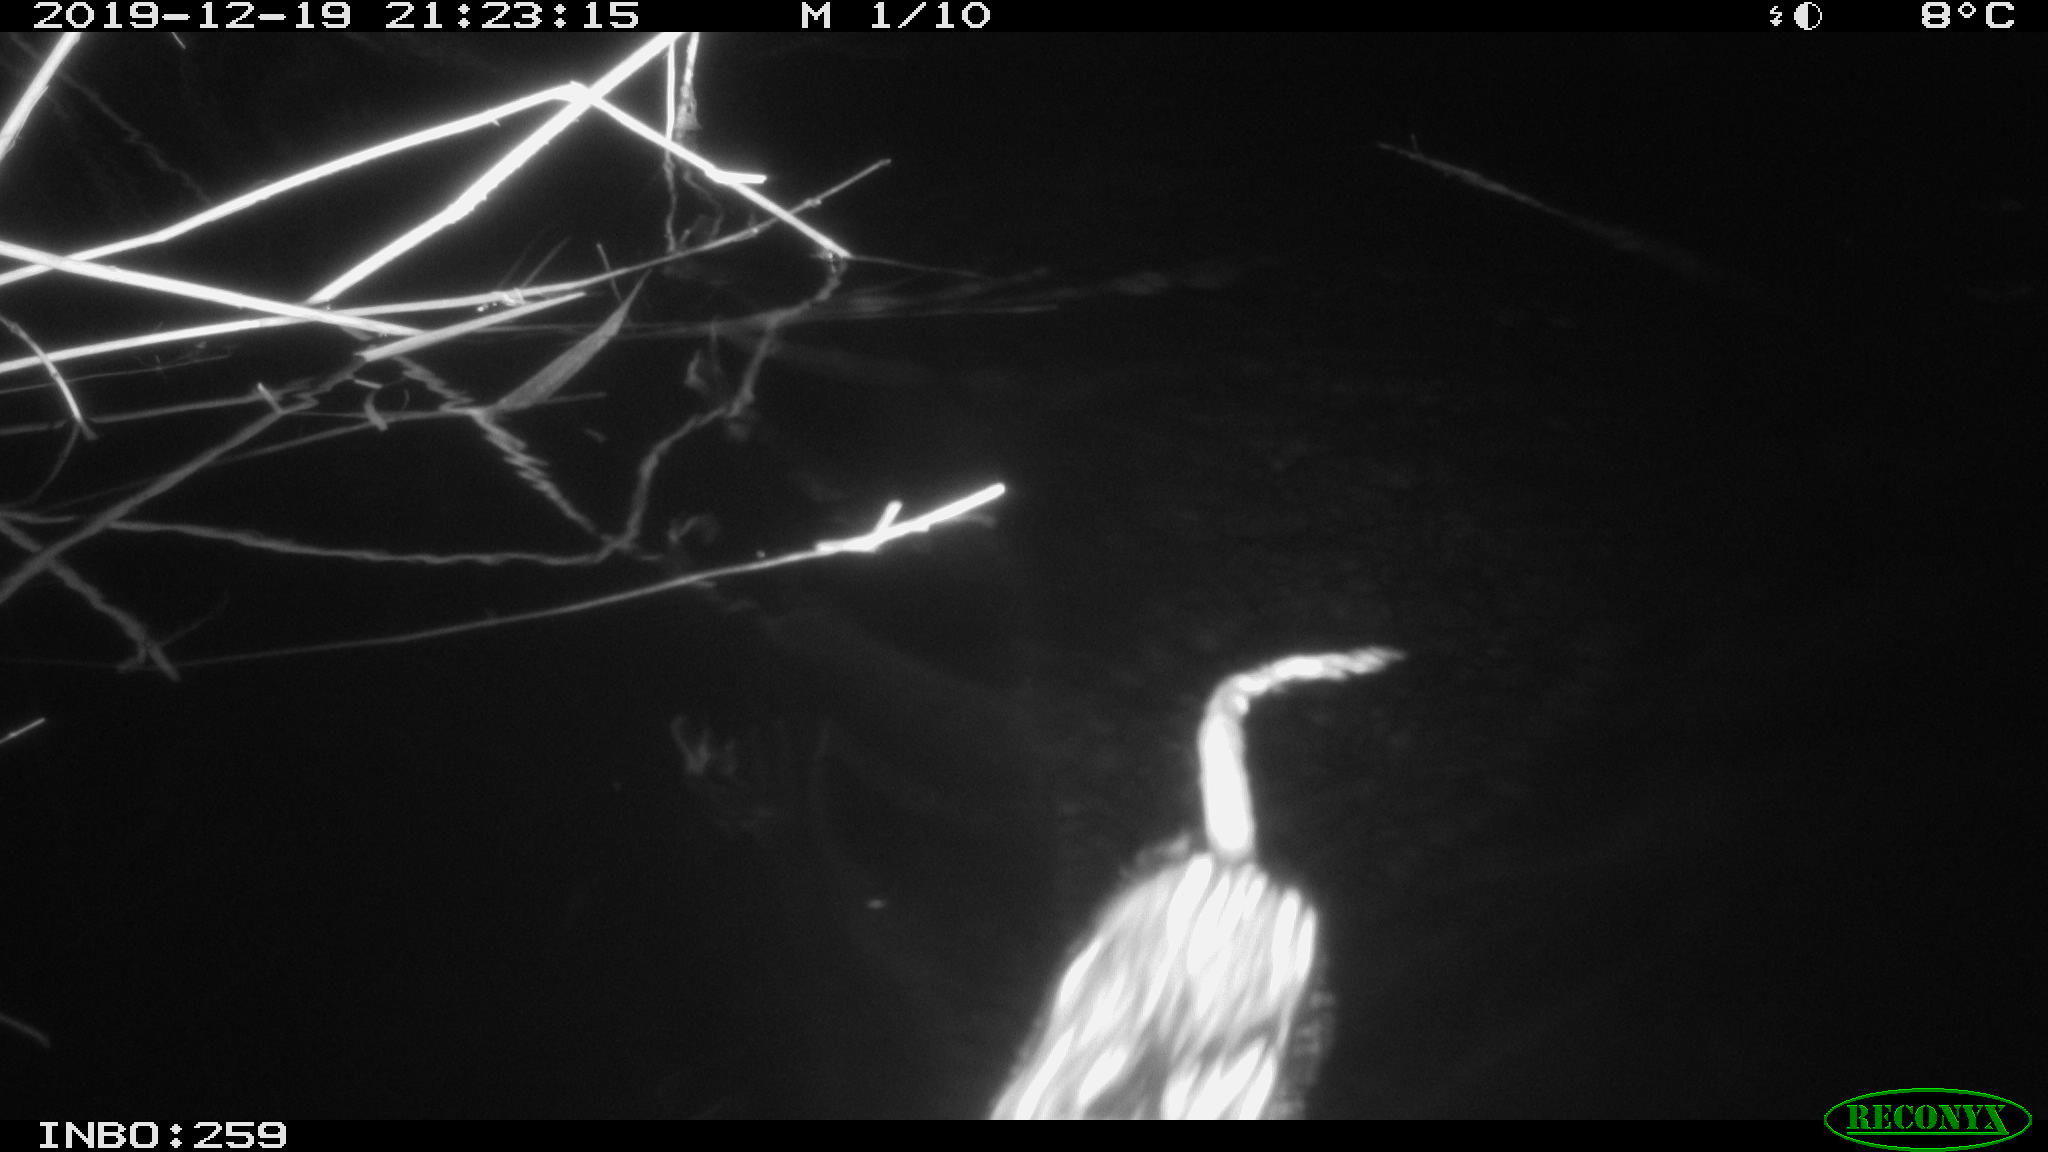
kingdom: Animalia
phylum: Chordata
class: Mammalia
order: Rodentia
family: Cricetidae
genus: Ondatra
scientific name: Ondatra zibethicus
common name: Muskrat
